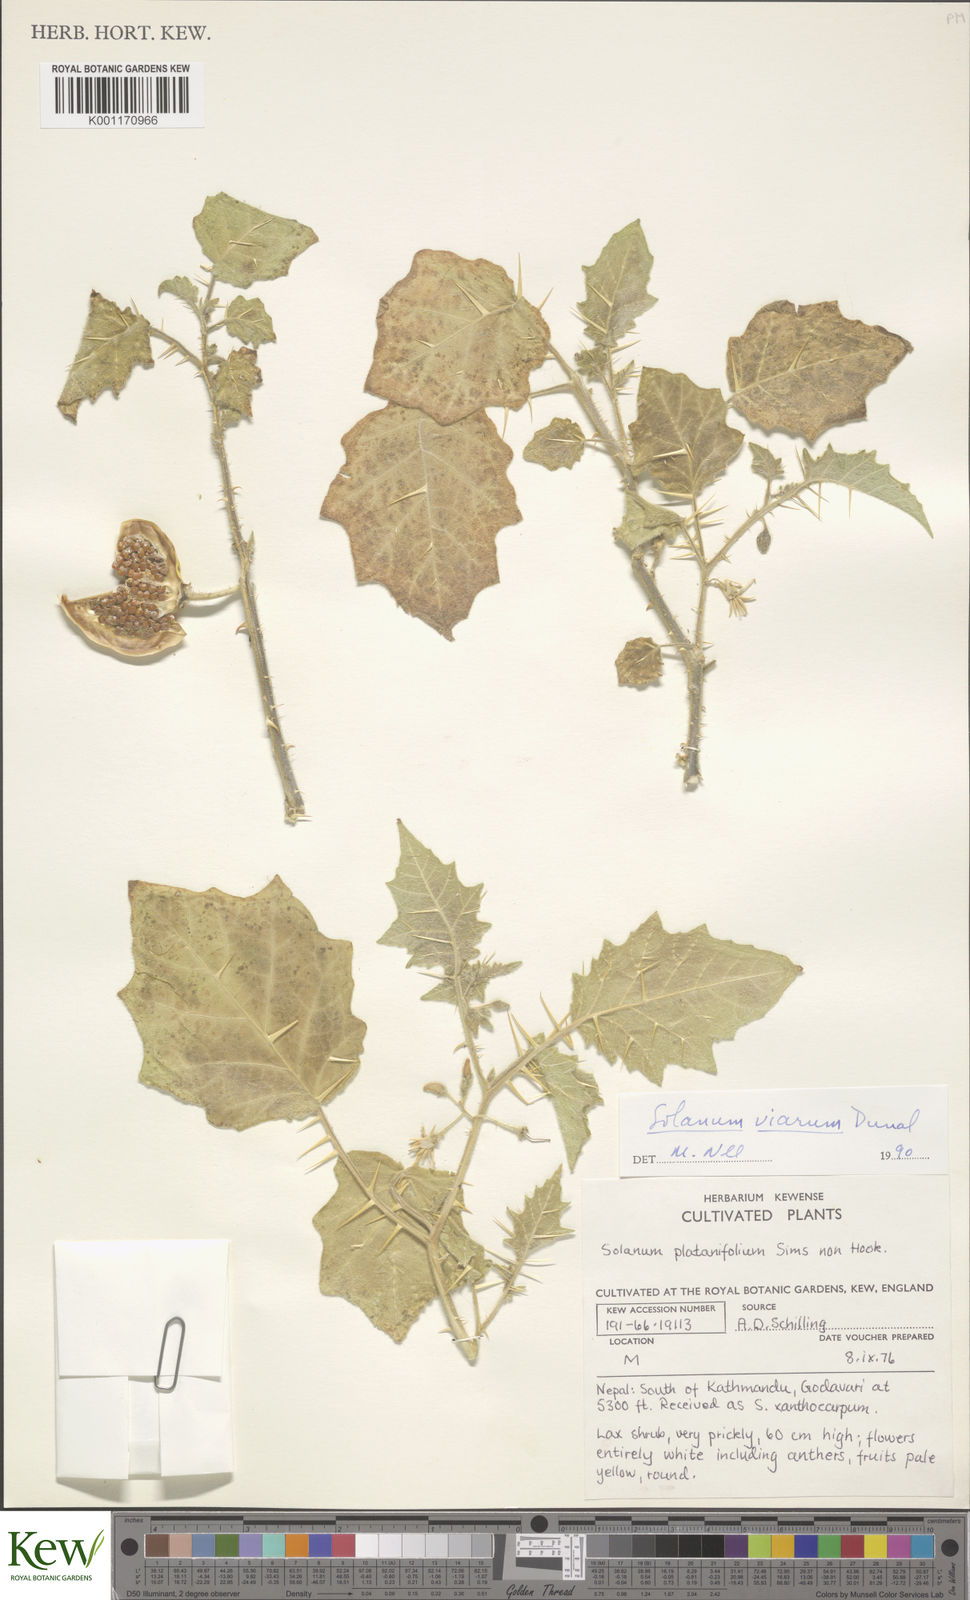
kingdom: Plantae
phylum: Tracheophyta
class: Magnoliopsida
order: Solanales
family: Solanaceae
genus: Solanum
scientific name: Solanum viarum
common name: Tropical soda apple
